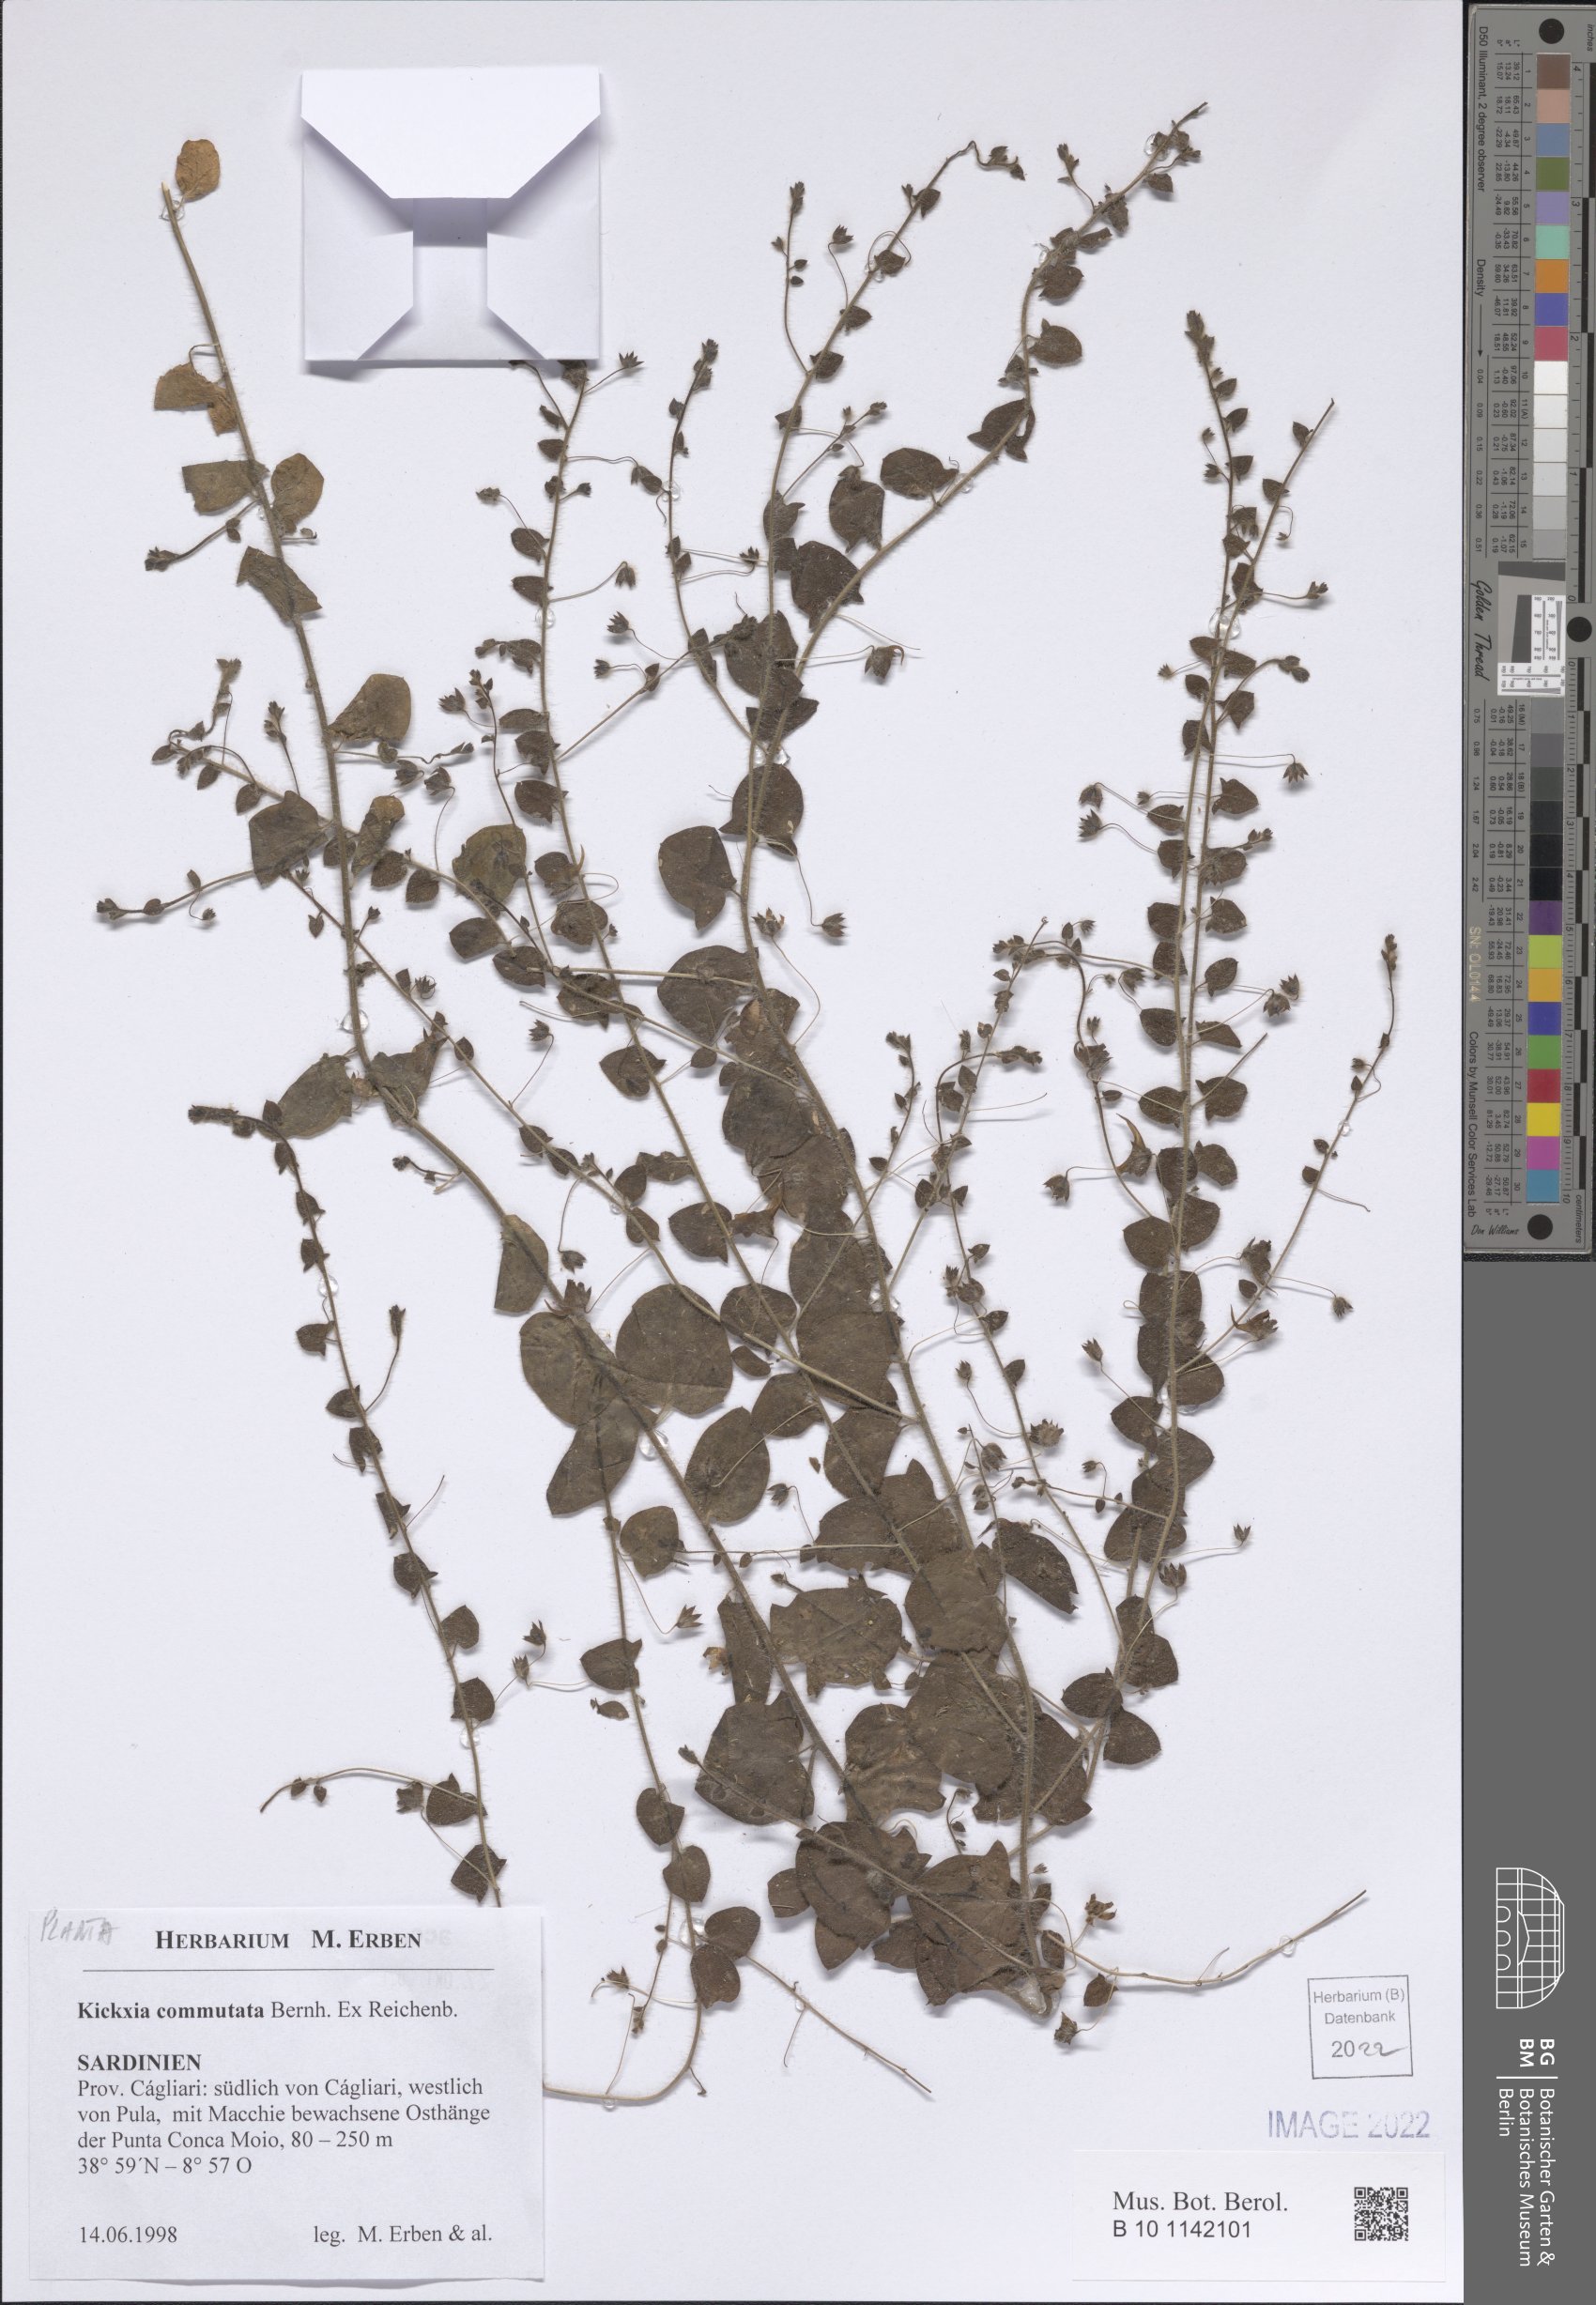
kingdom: Plantae
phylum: Tracheophyta
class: Magnoliopsida
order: Lamiales
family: Plantaginaceae
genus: Kickxia
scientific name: Kickxia commutata
